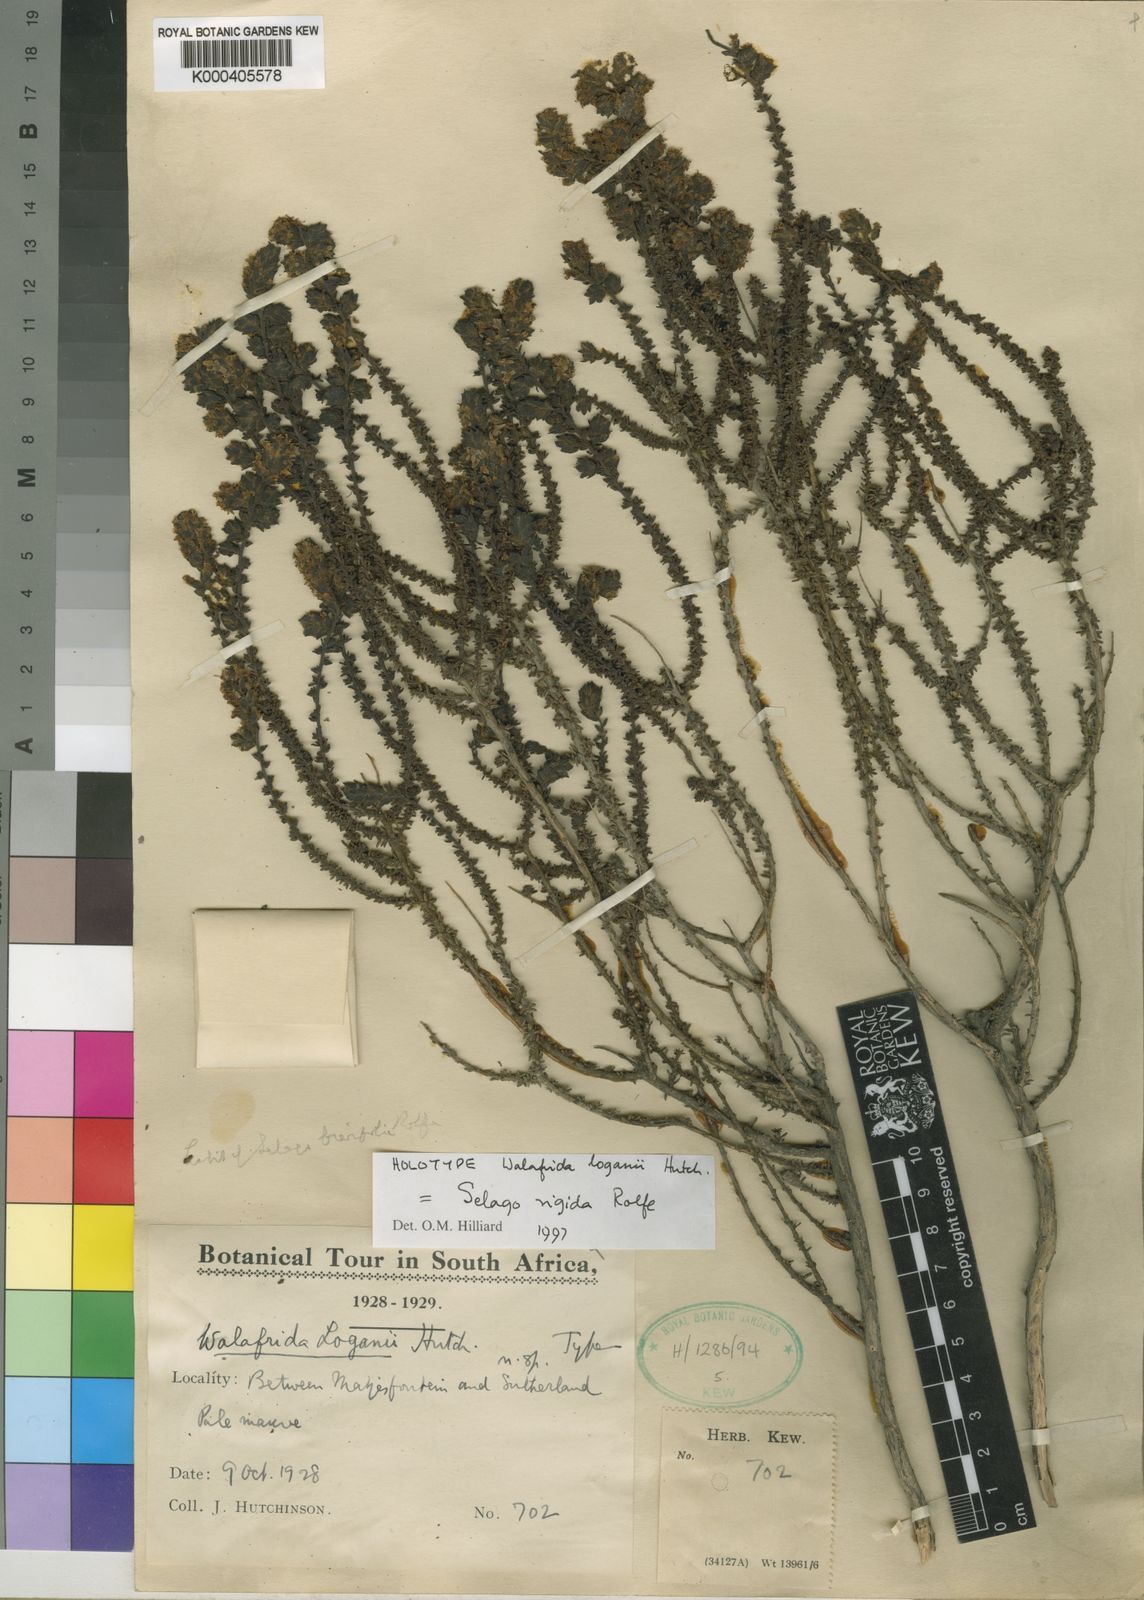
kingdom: Plantae
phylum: Tracheophyta
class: Magnoliopsida
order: Lamiales
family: Scrophulariaceae
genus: Selago
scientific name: Selago rigida
